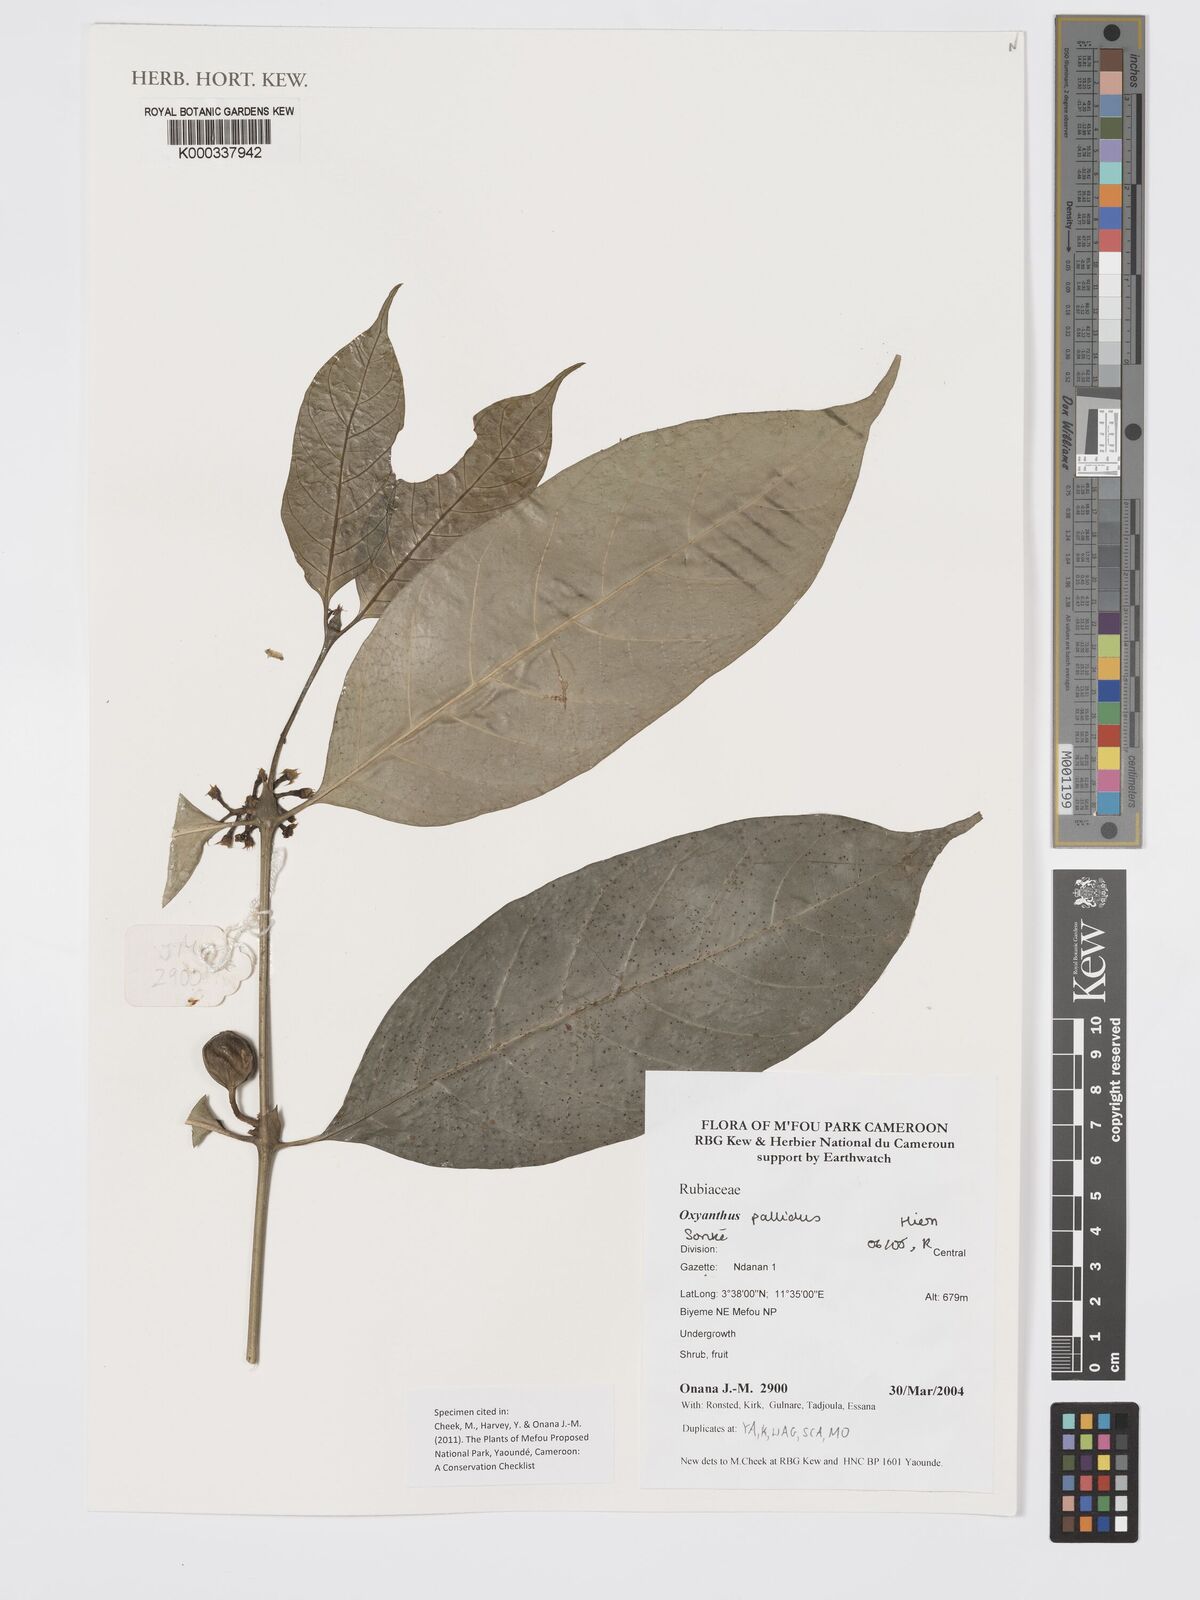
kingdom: Plantae
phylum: Tracheophyta
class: Magnoliopsida
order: Gentianales
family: Rubiaceae
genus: Oxyanthus
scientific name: Oxyanthus pallidus
